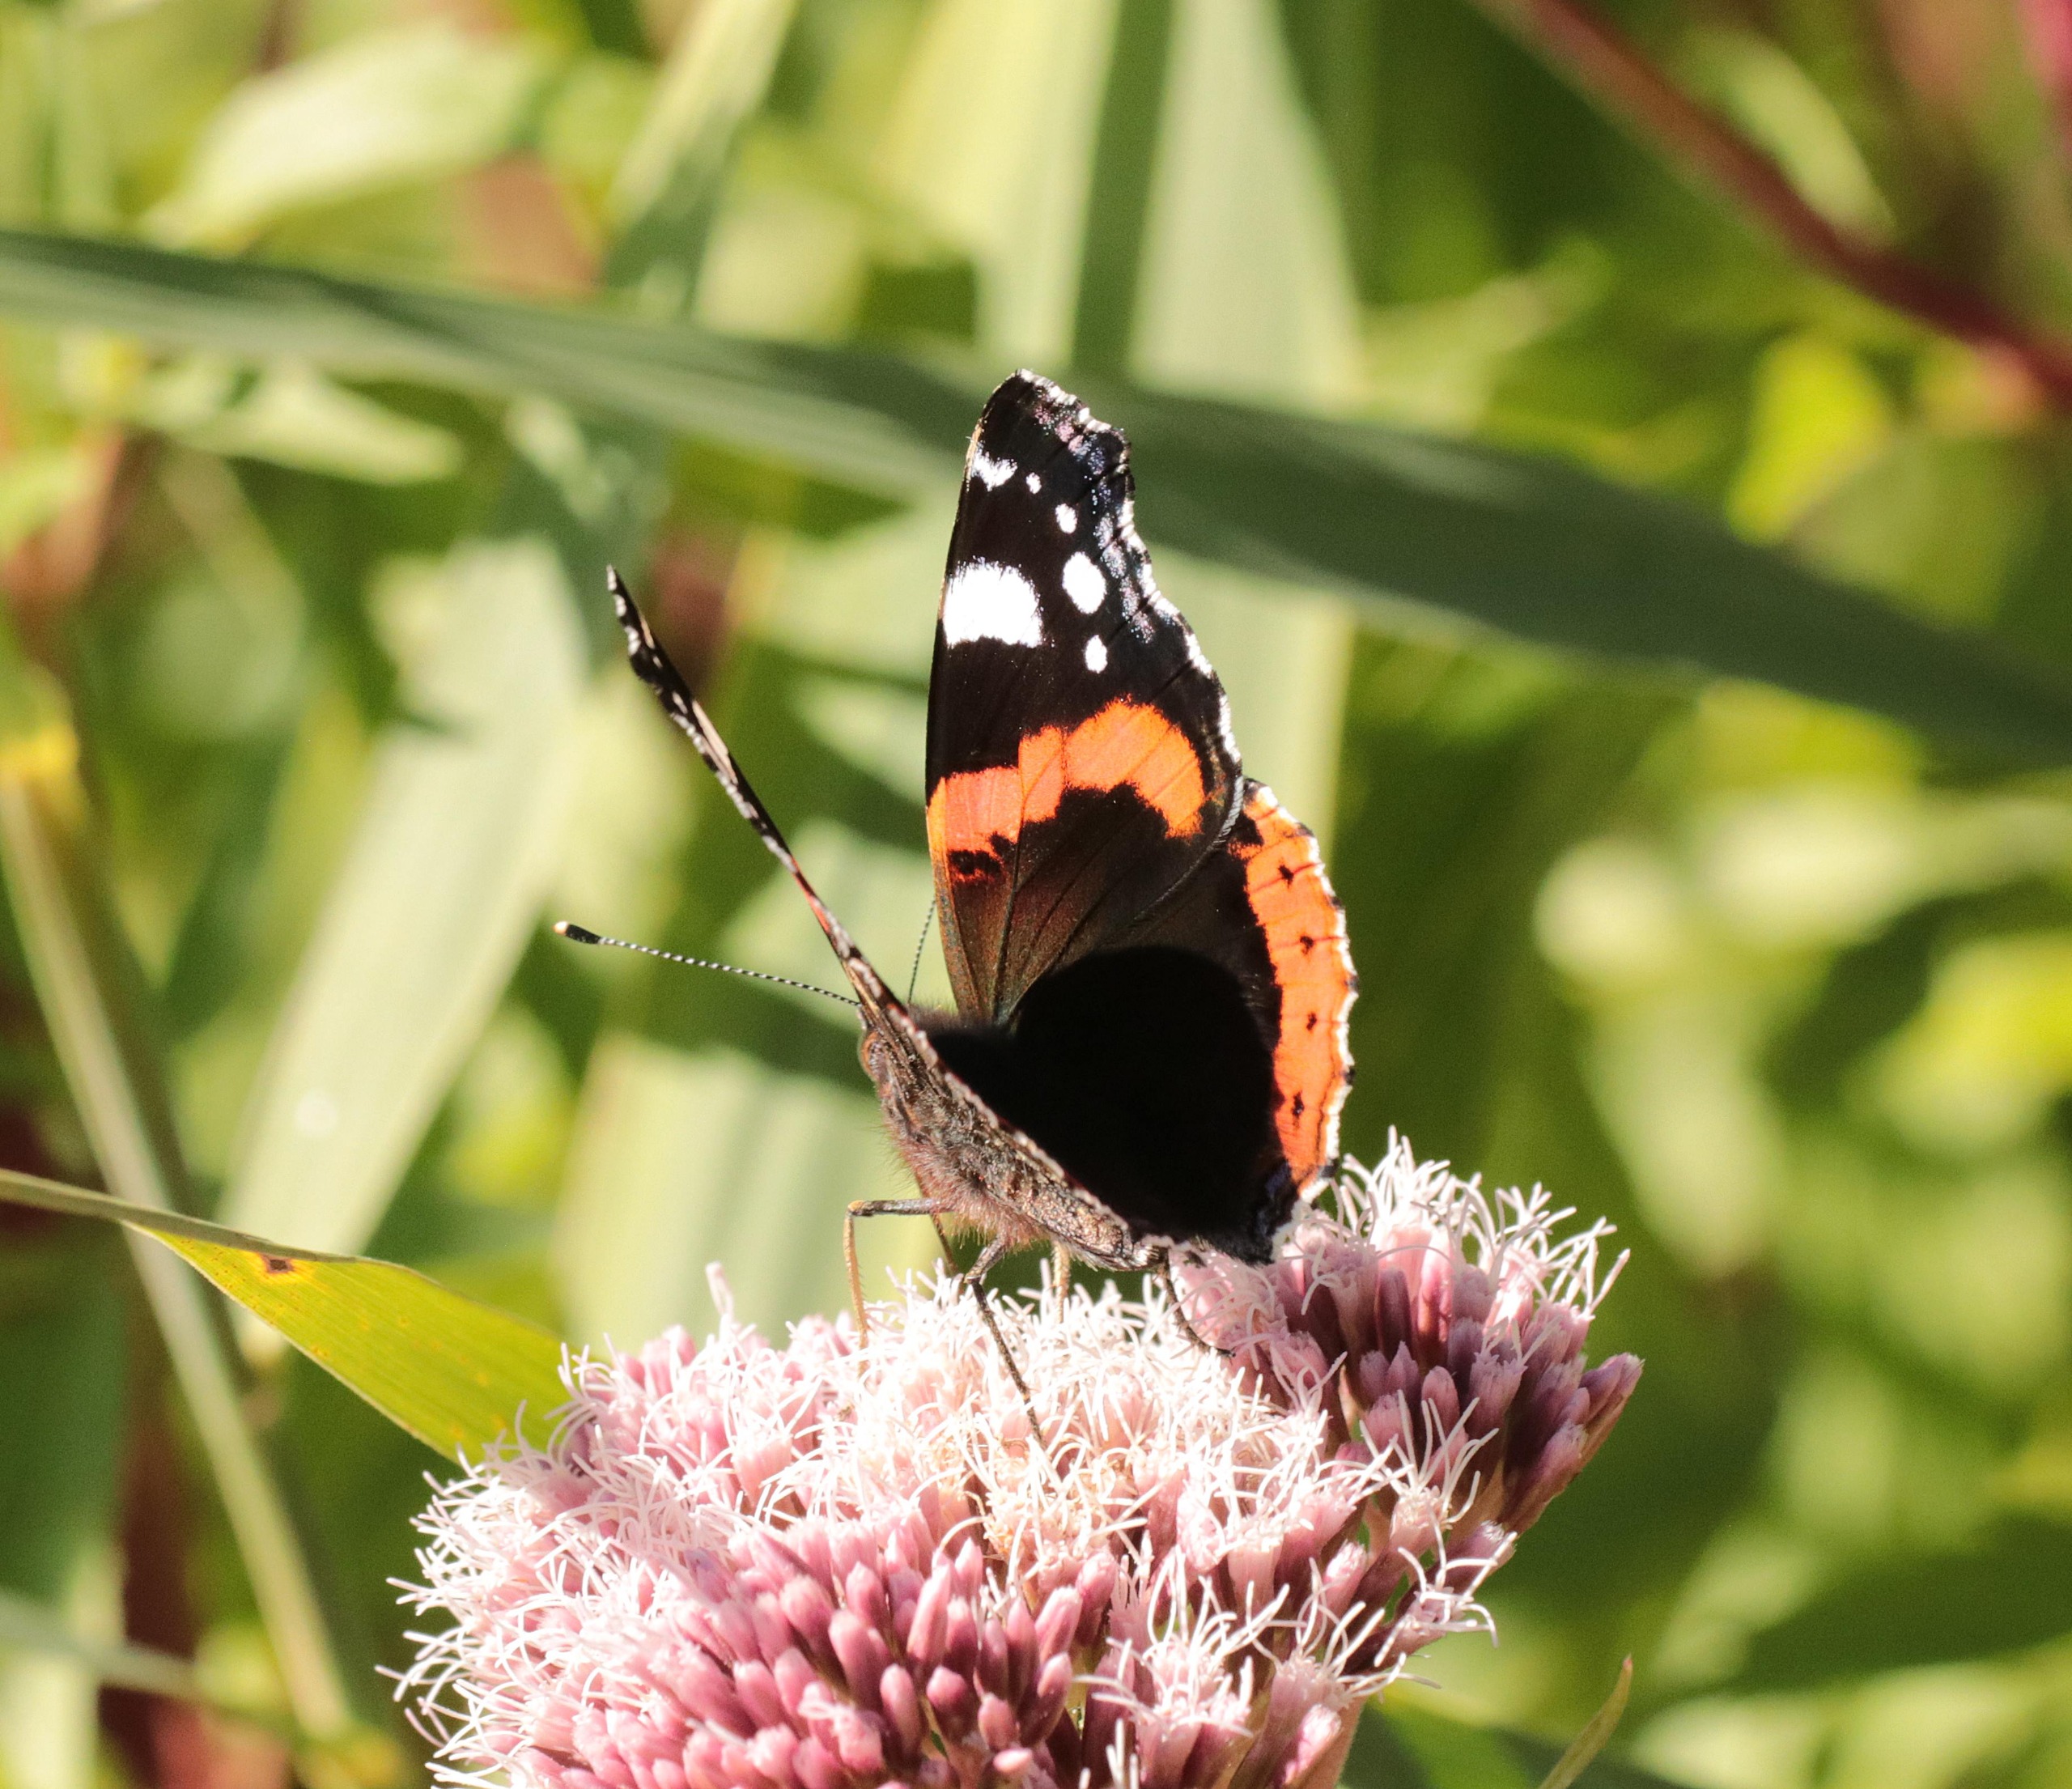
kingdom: Animalia
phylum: Arthropoda
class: Insecta
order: Lepidoptera
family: Nymphalidae
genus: Vanessa
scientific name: Vanessa atalanta
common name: Admiral
